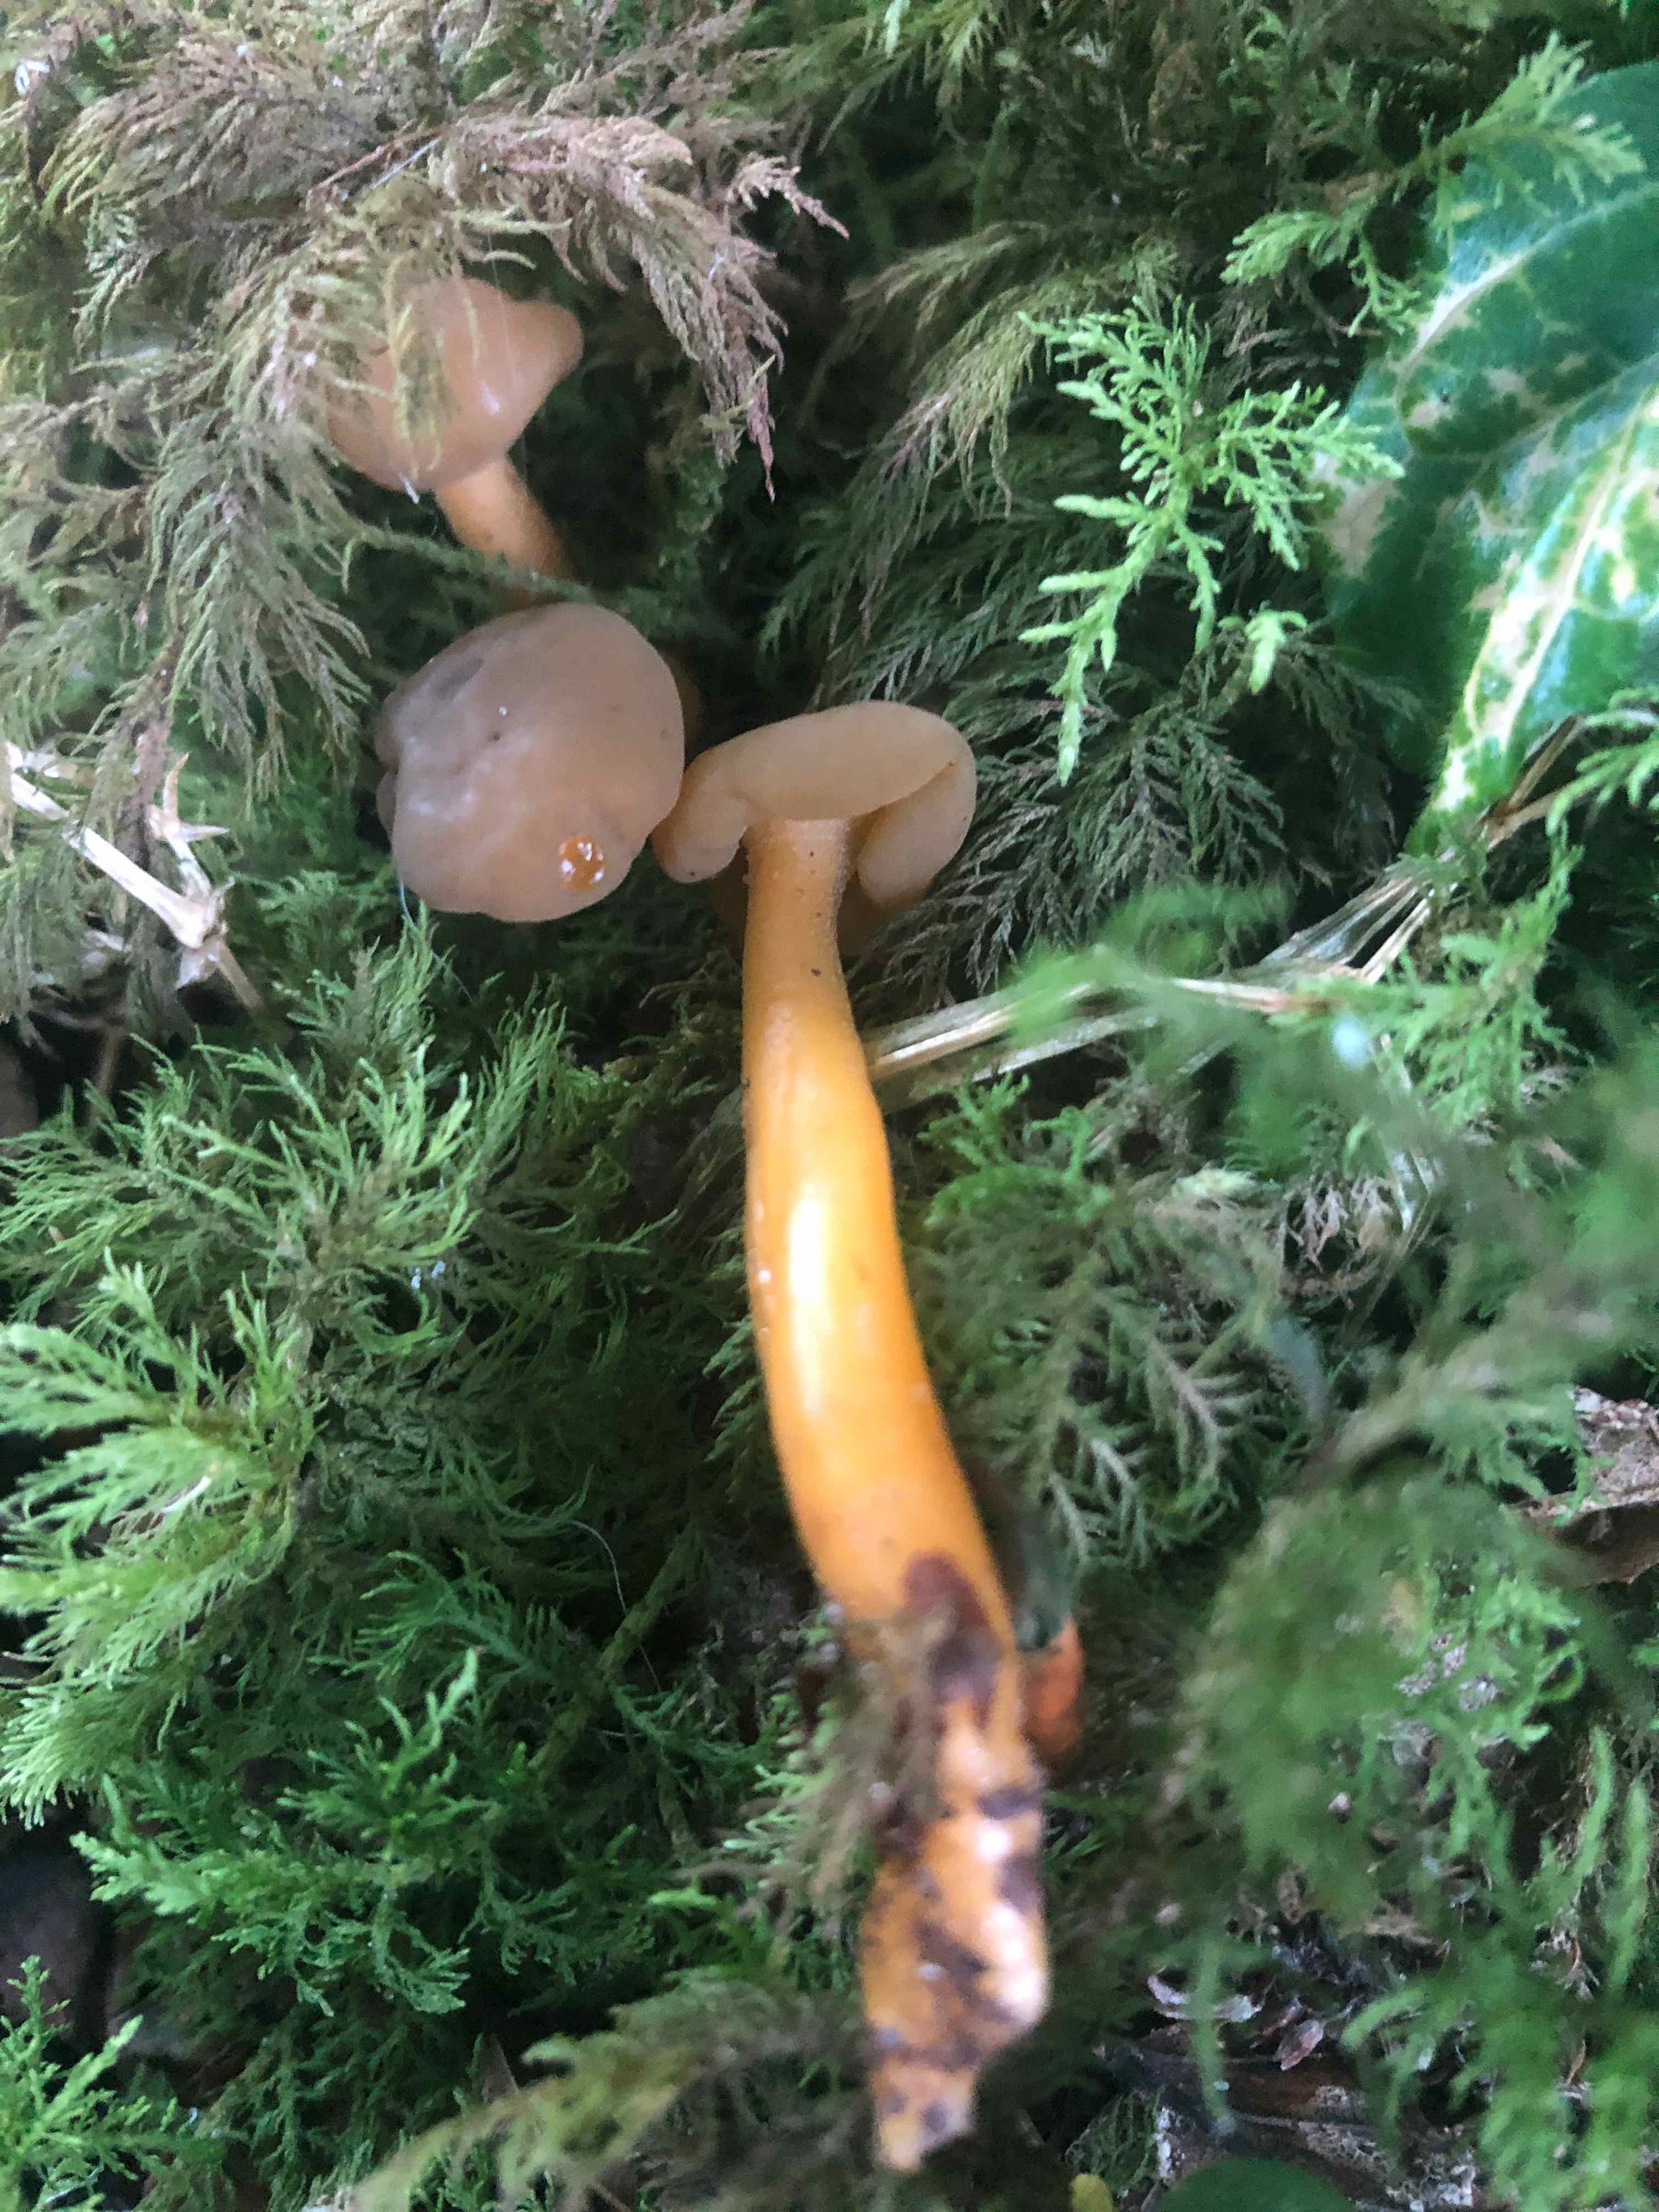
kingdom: Fungi
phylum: Ascomycota
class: Leotiomycetes
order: Leotiales
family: Leotiaceae
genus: Leotia
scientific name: Leotia lubrica
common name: ravsvamp
